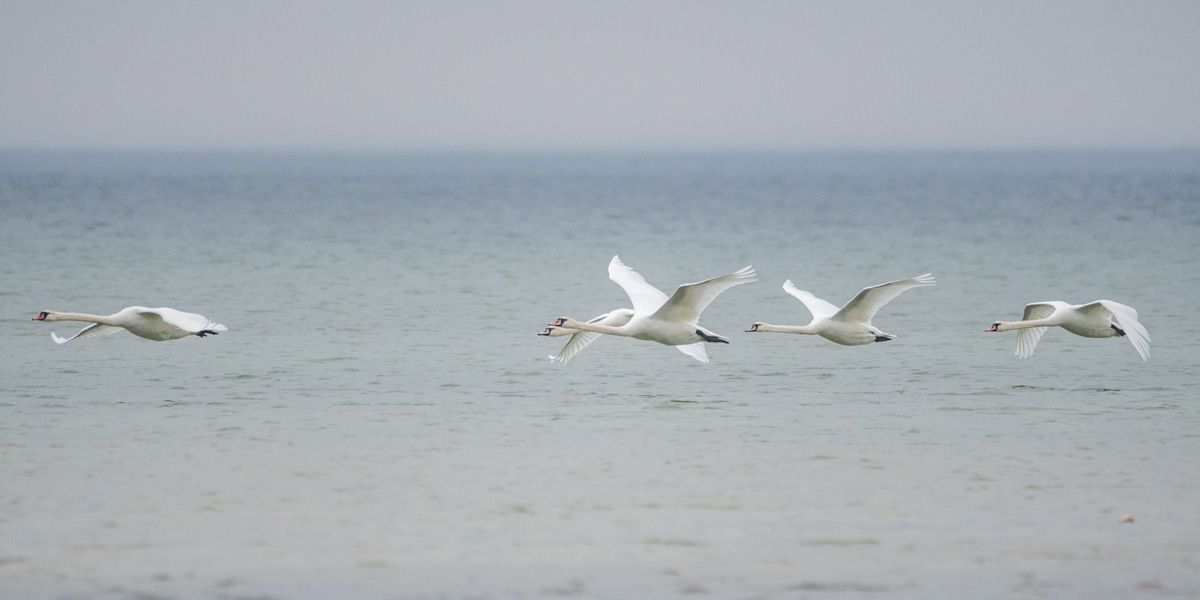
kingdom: Animalia
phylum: Chordata
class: Aves
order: Anseriformes
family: Anatidae
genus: Cygnus
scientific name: Cygnus olor
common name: Mute swan
